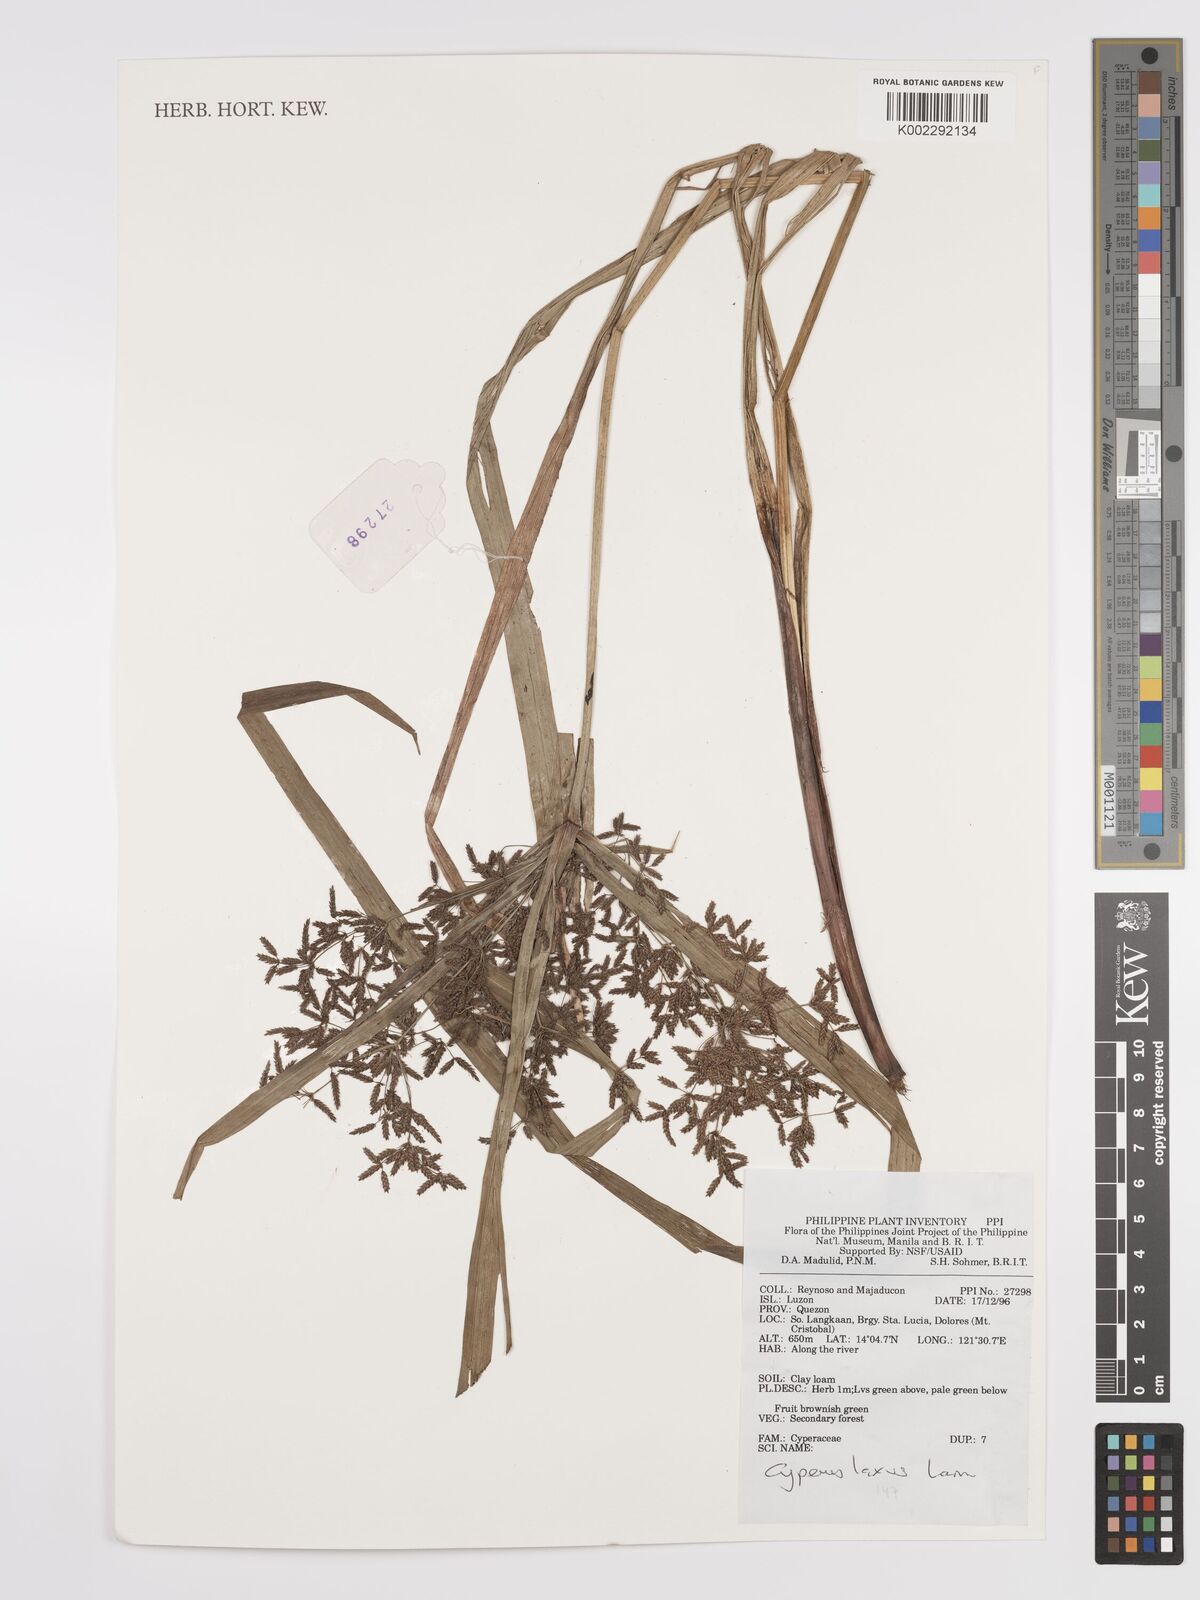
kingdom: Plantae
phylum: Tracheophyta
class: Liliopsida
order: Poales
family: Cyperaceae
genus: Cyperus
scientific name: Cyperus diffusus
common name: Dwarf umbrella grass
